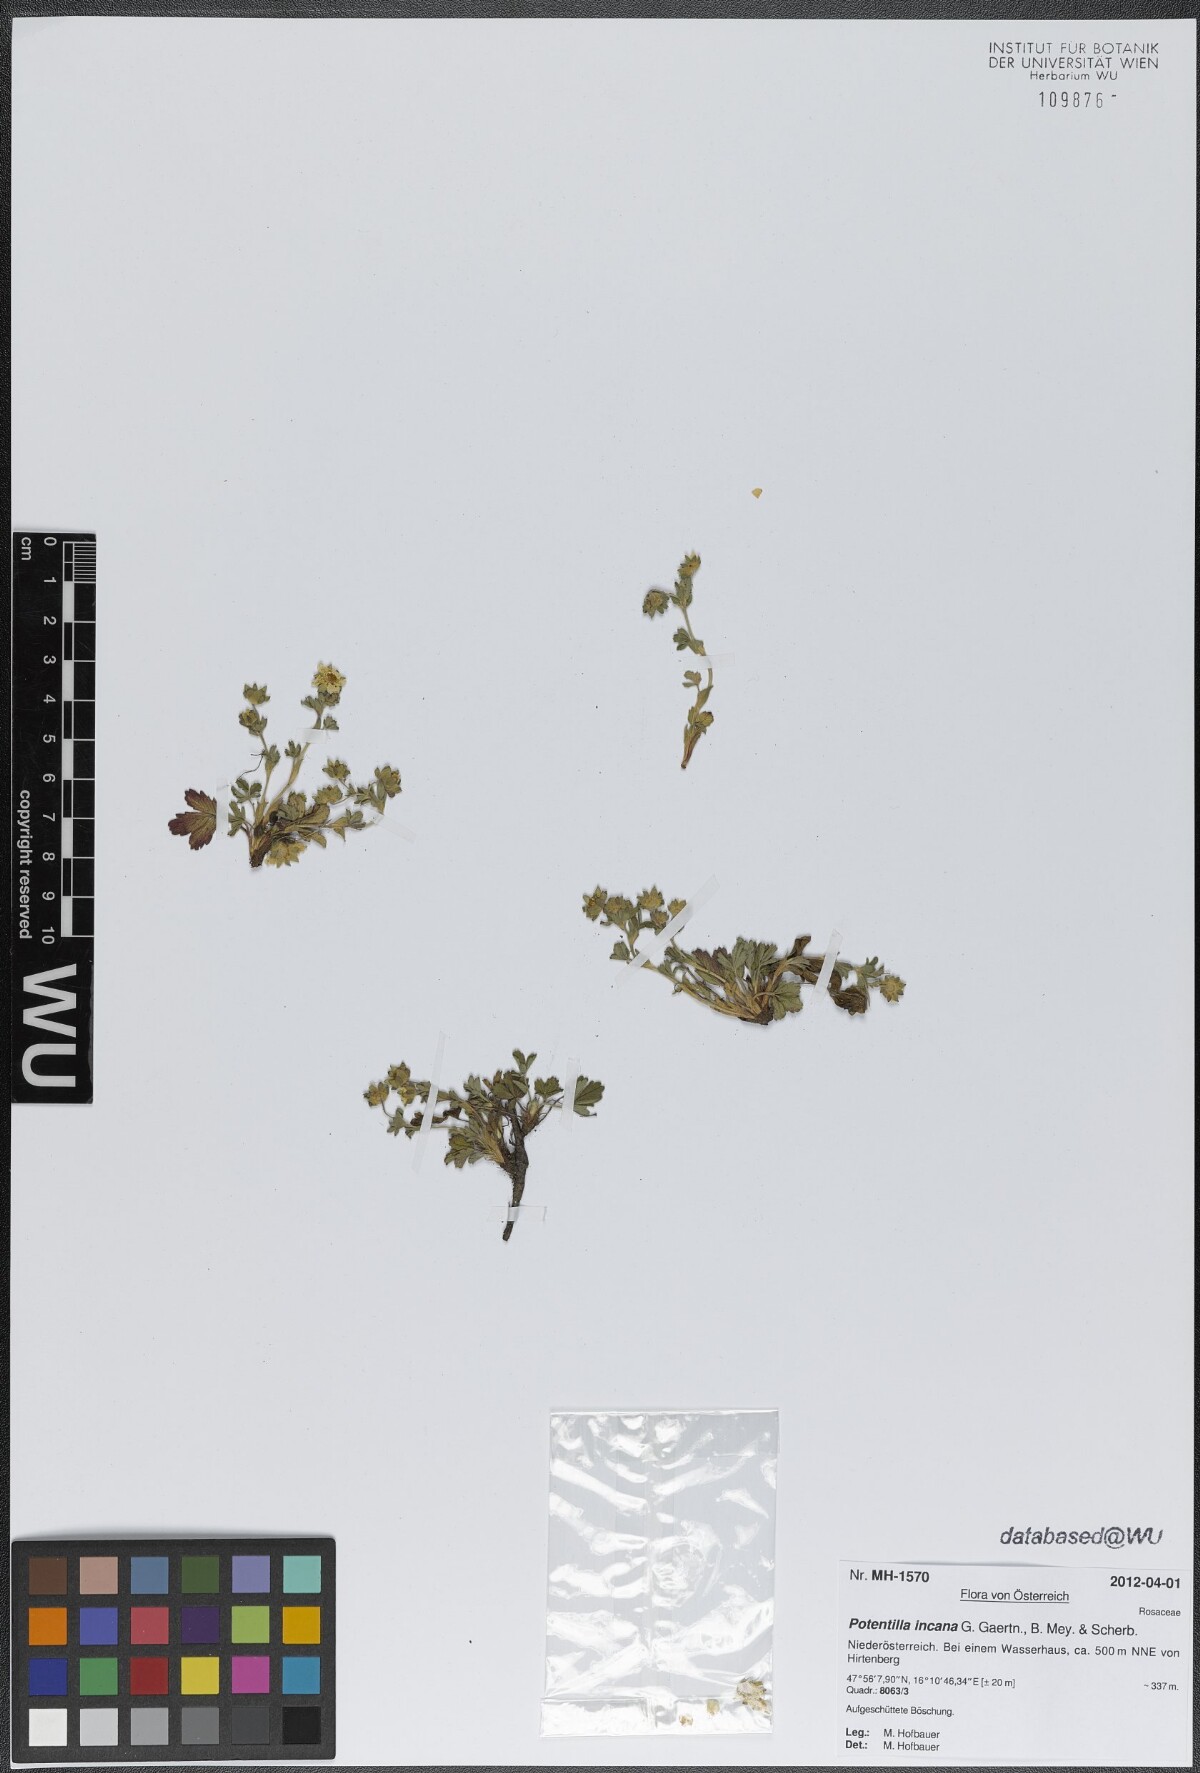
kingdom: Plantae
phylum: Tracheophyta
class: Magnoliopsida
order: Rosales
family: Rosaceae
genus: Potentilla
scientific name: Potentilla cinerea
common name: Ashy cinquefoil
